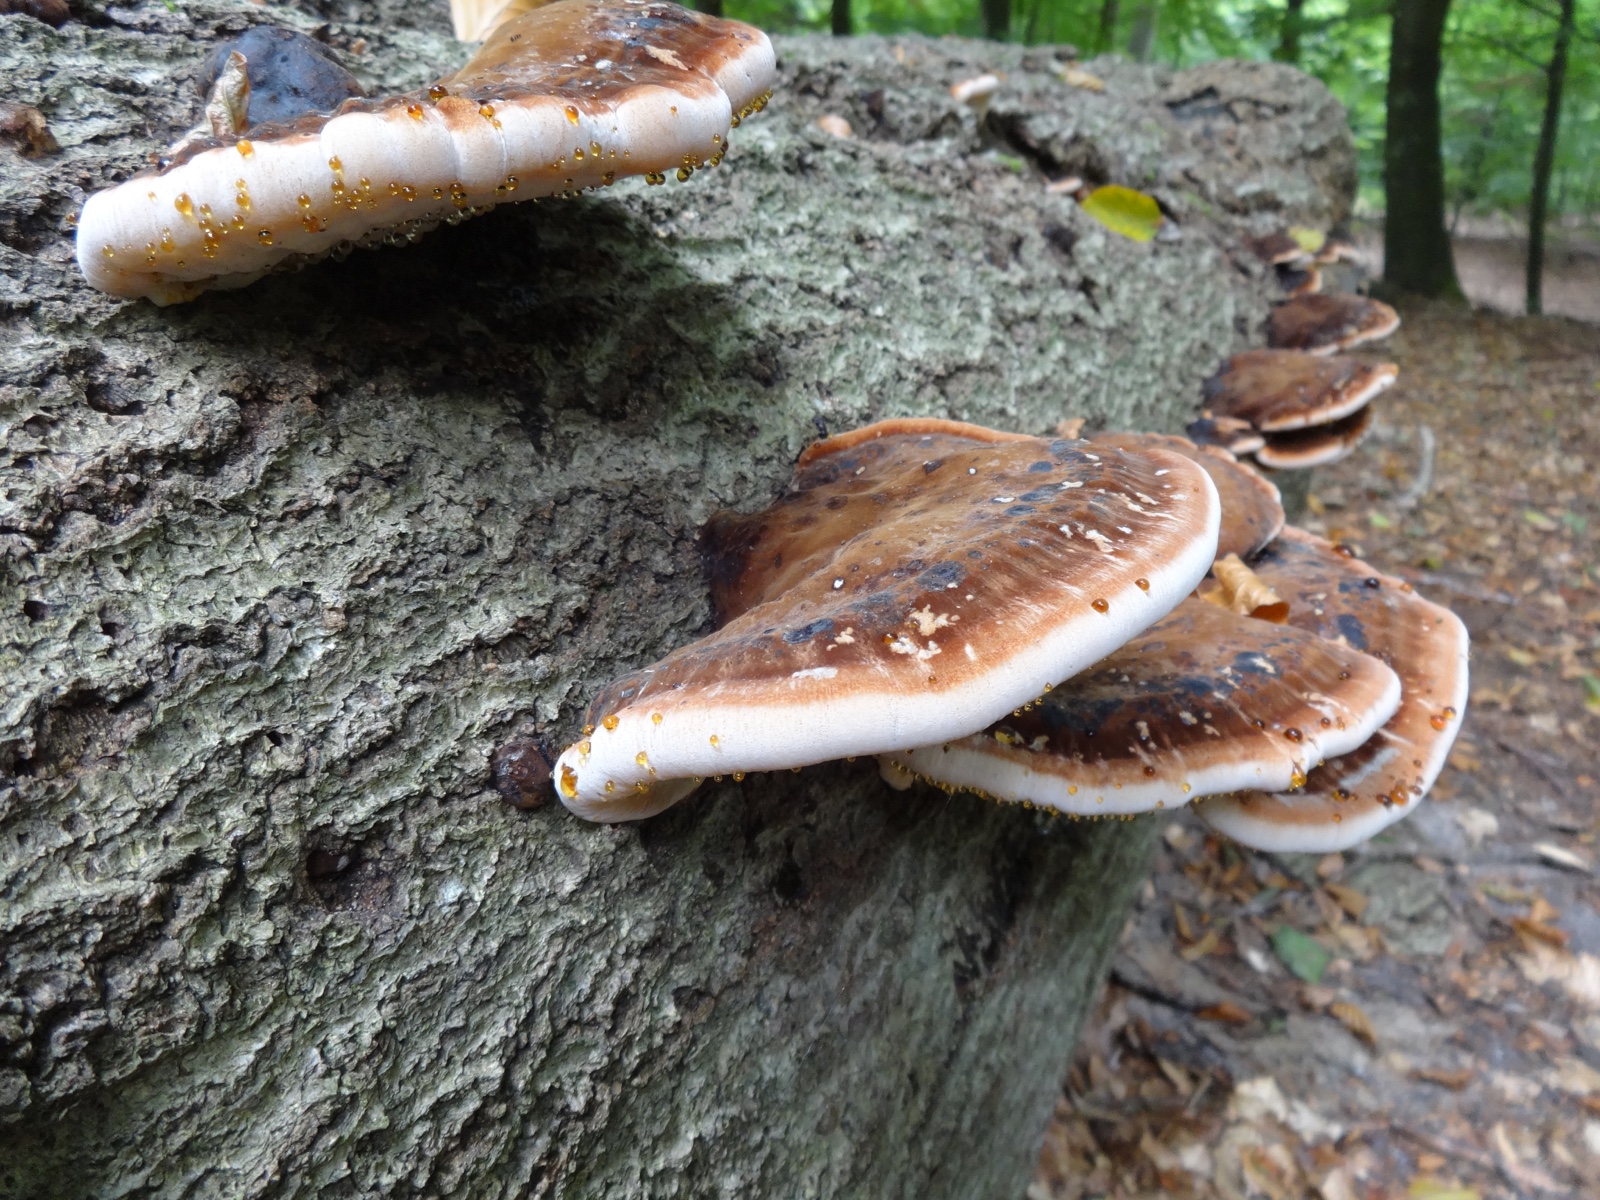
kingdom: Fungi
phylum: Basidiomycota
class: Agaricomycetes
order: Polyporales
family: Ischnodermataceae
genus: Ischnoderma
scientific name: Ischnoderma resinosum
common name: løv-tjæreporesvamp
